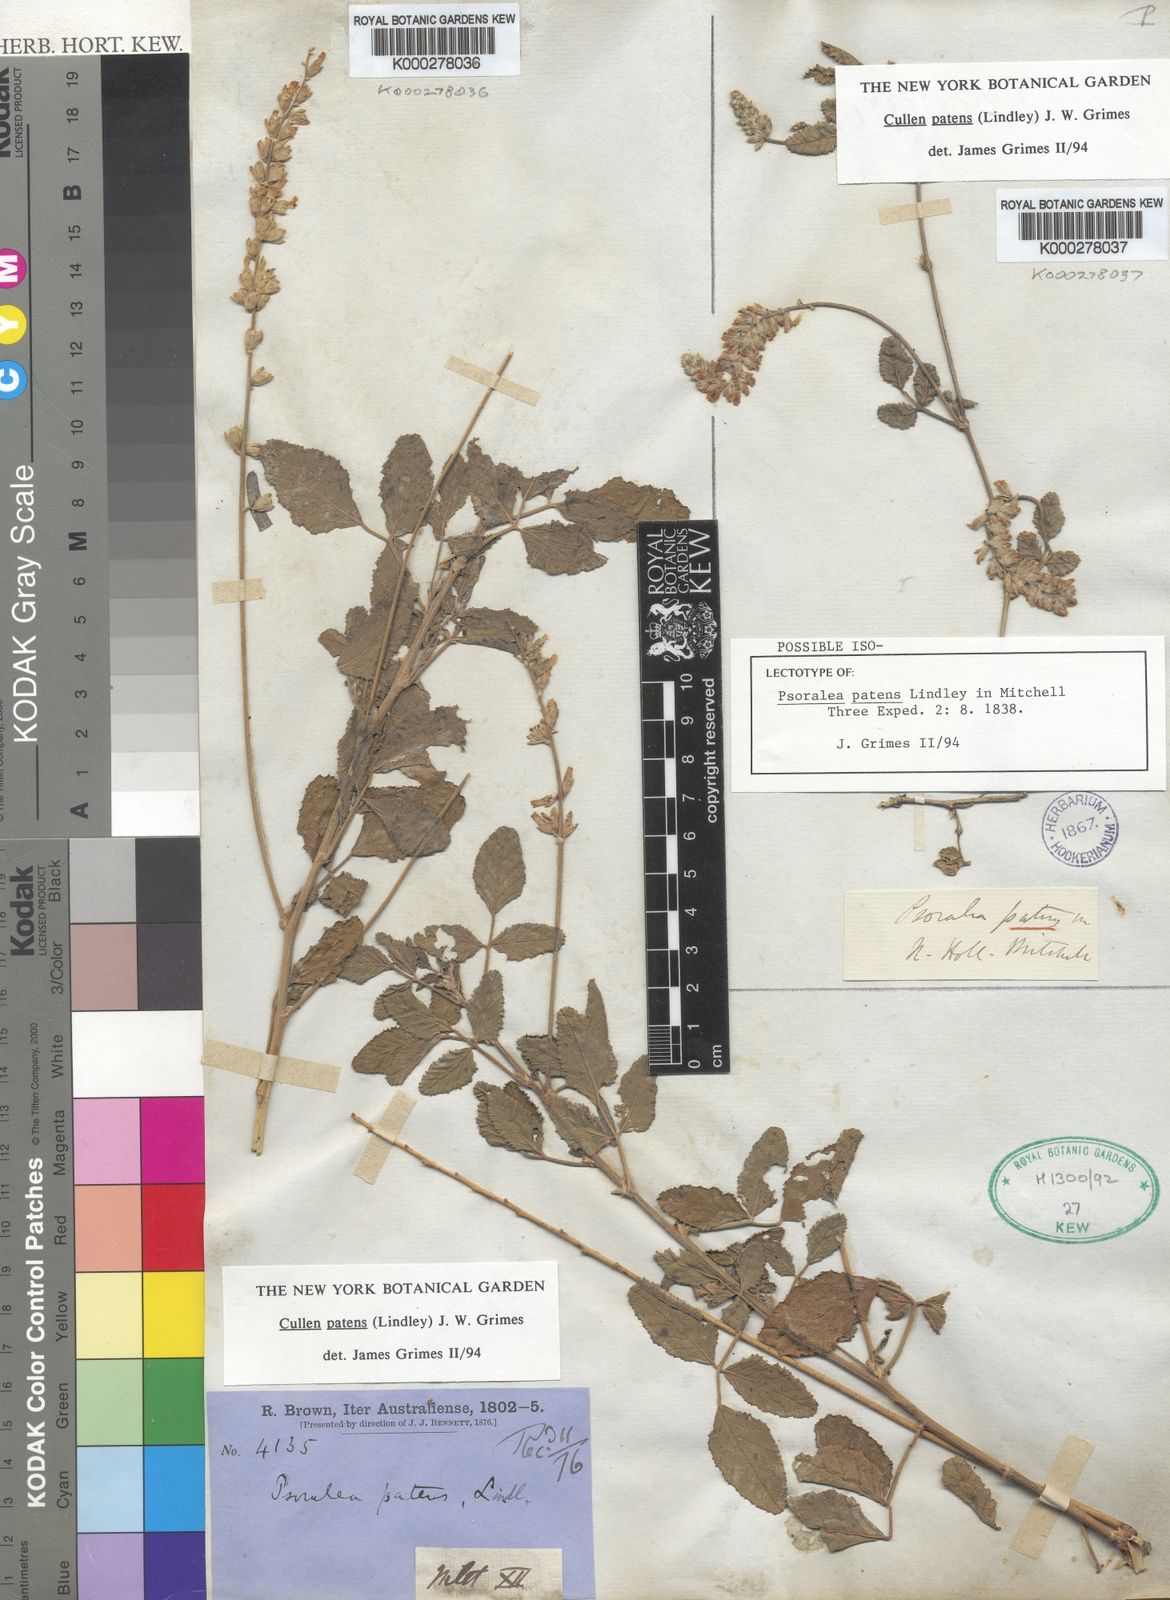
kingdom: Plantae
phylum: Tracheophyta
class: Magnoliopsida
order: Fabales
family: Fabaceae
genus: Cullen
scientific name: Cullen patens
